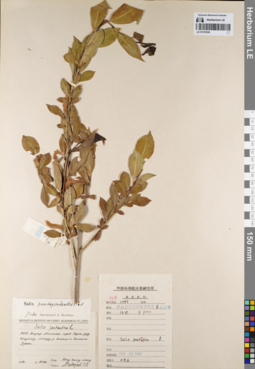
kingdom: Plantae
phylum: Tracheophyta
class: Magnoliopsida
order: Malpighiales
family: Salicaceae
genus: Salix
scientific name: Salix pseudopentandra
